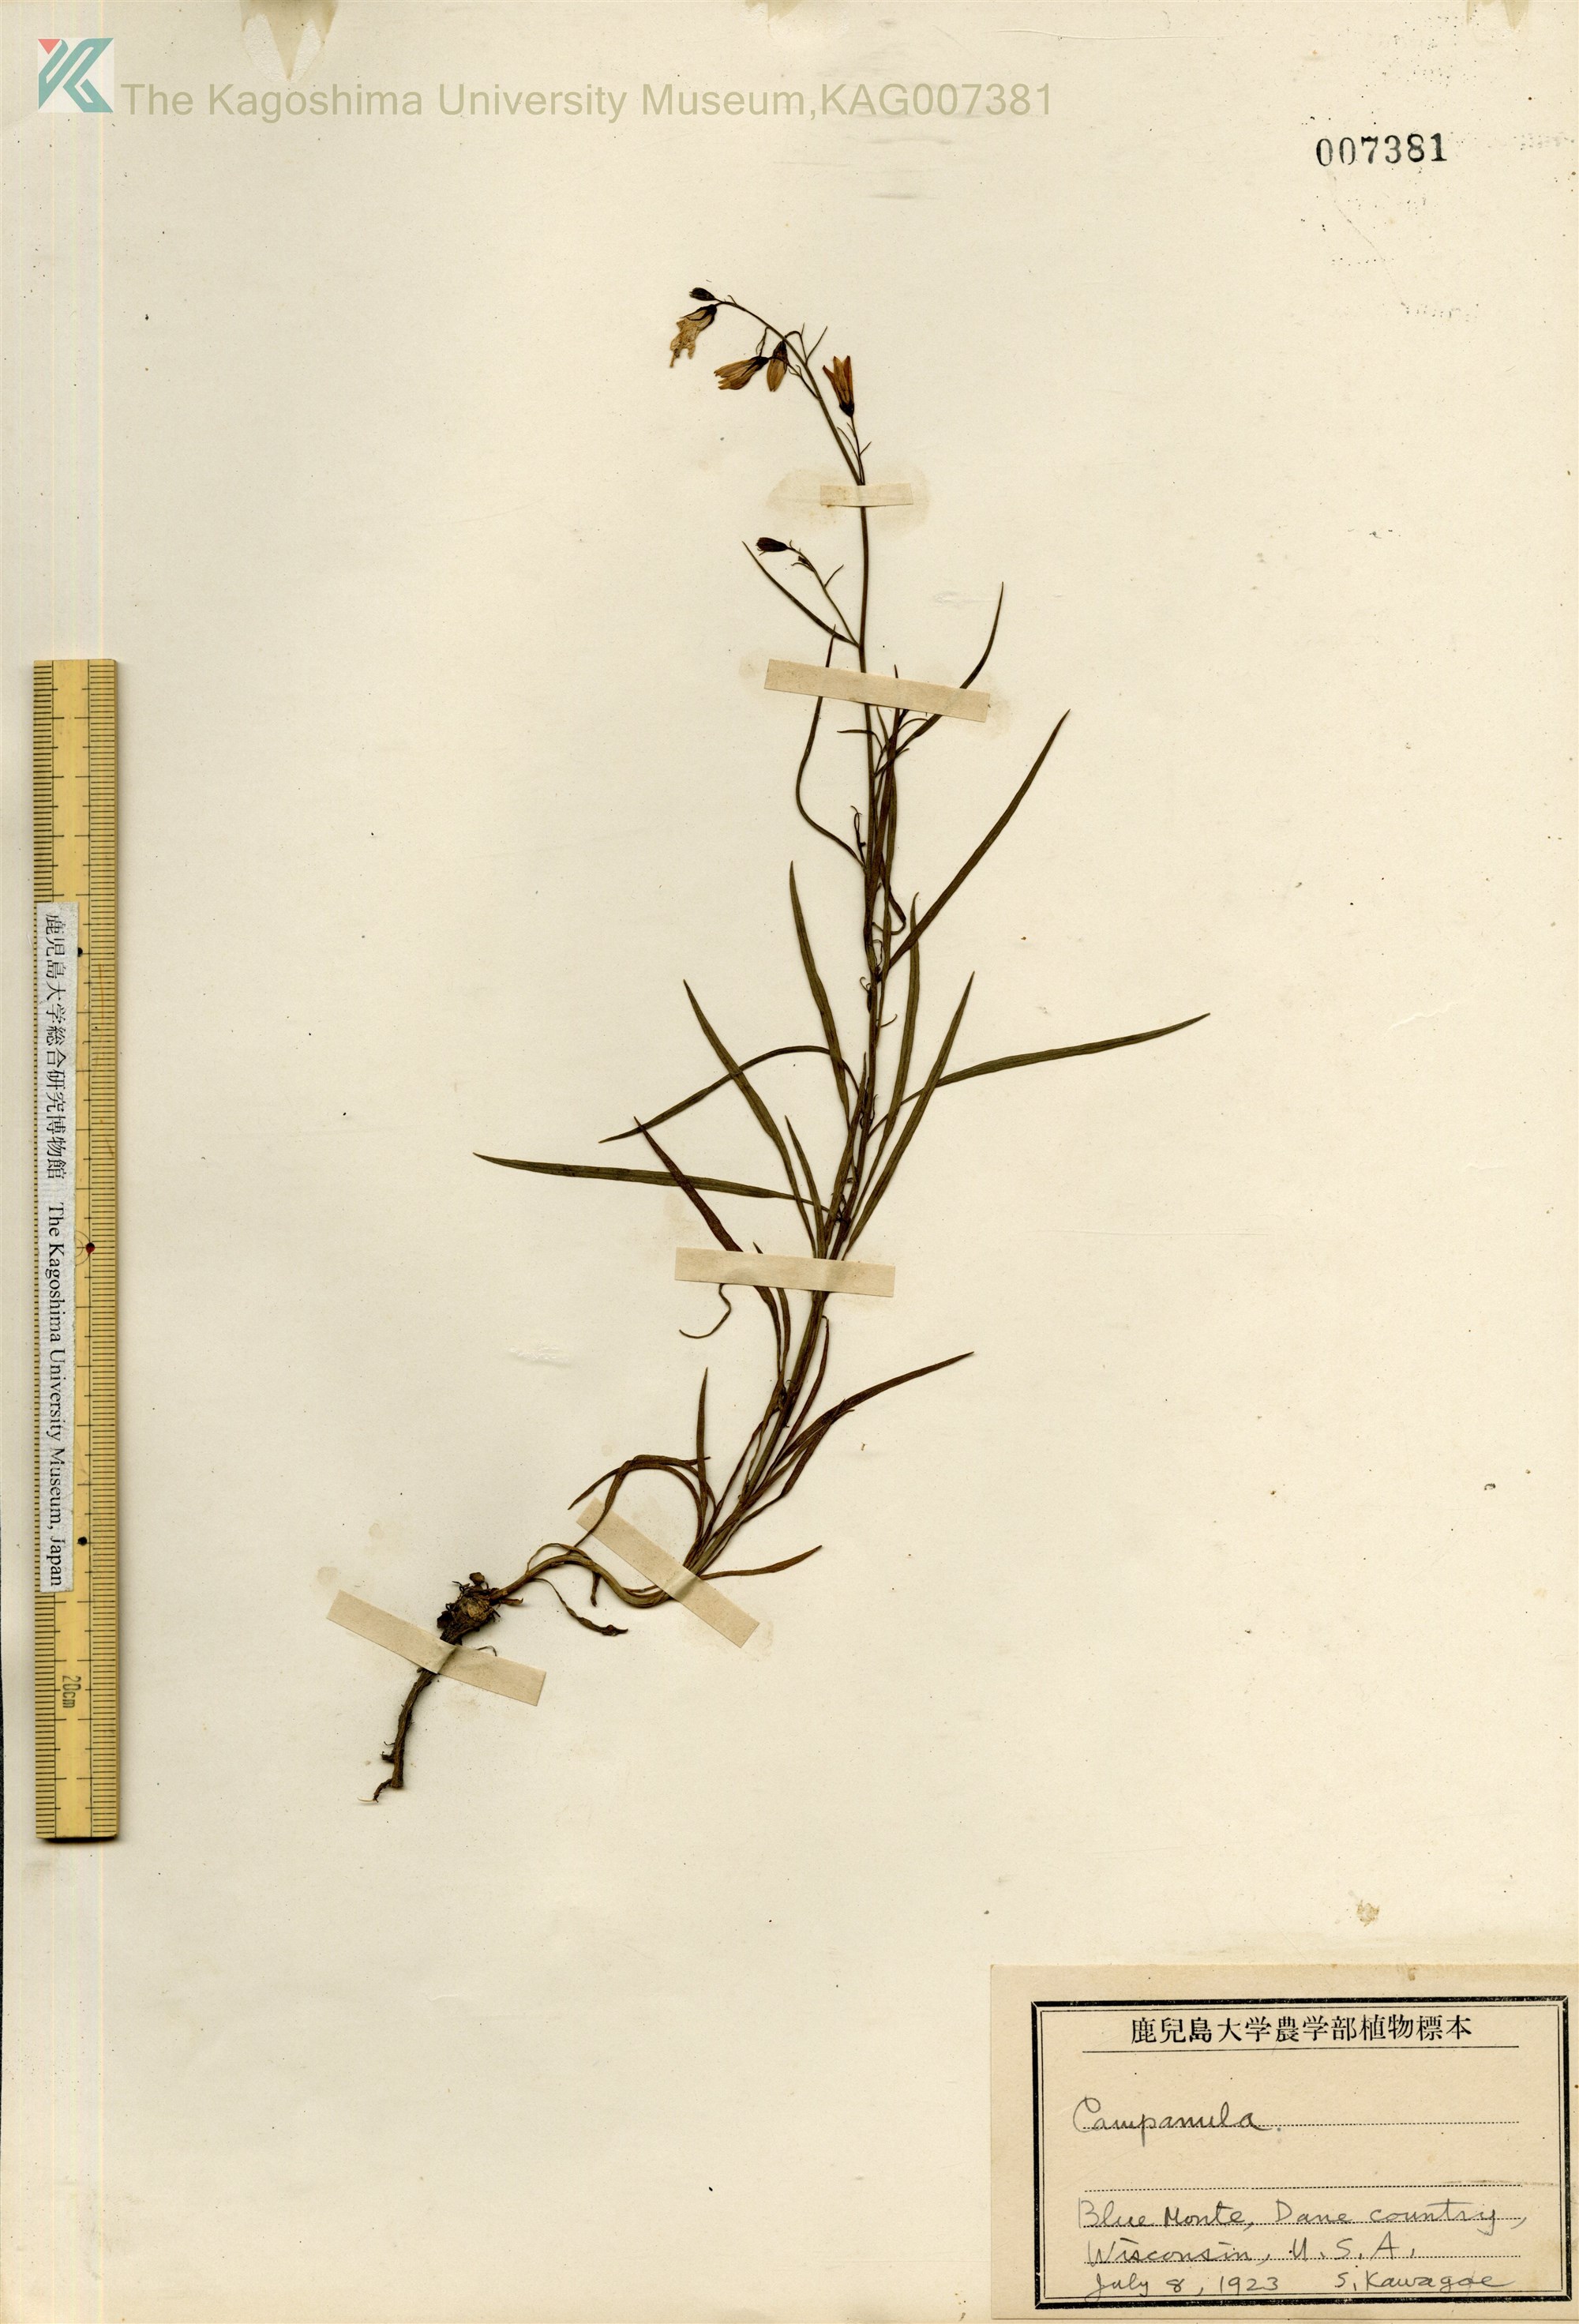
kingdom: Plantae
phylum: Tracheophyta
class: Magnoliopsida
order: Asterales
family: Campanulaceae
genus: Campanula
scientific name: Campanula
